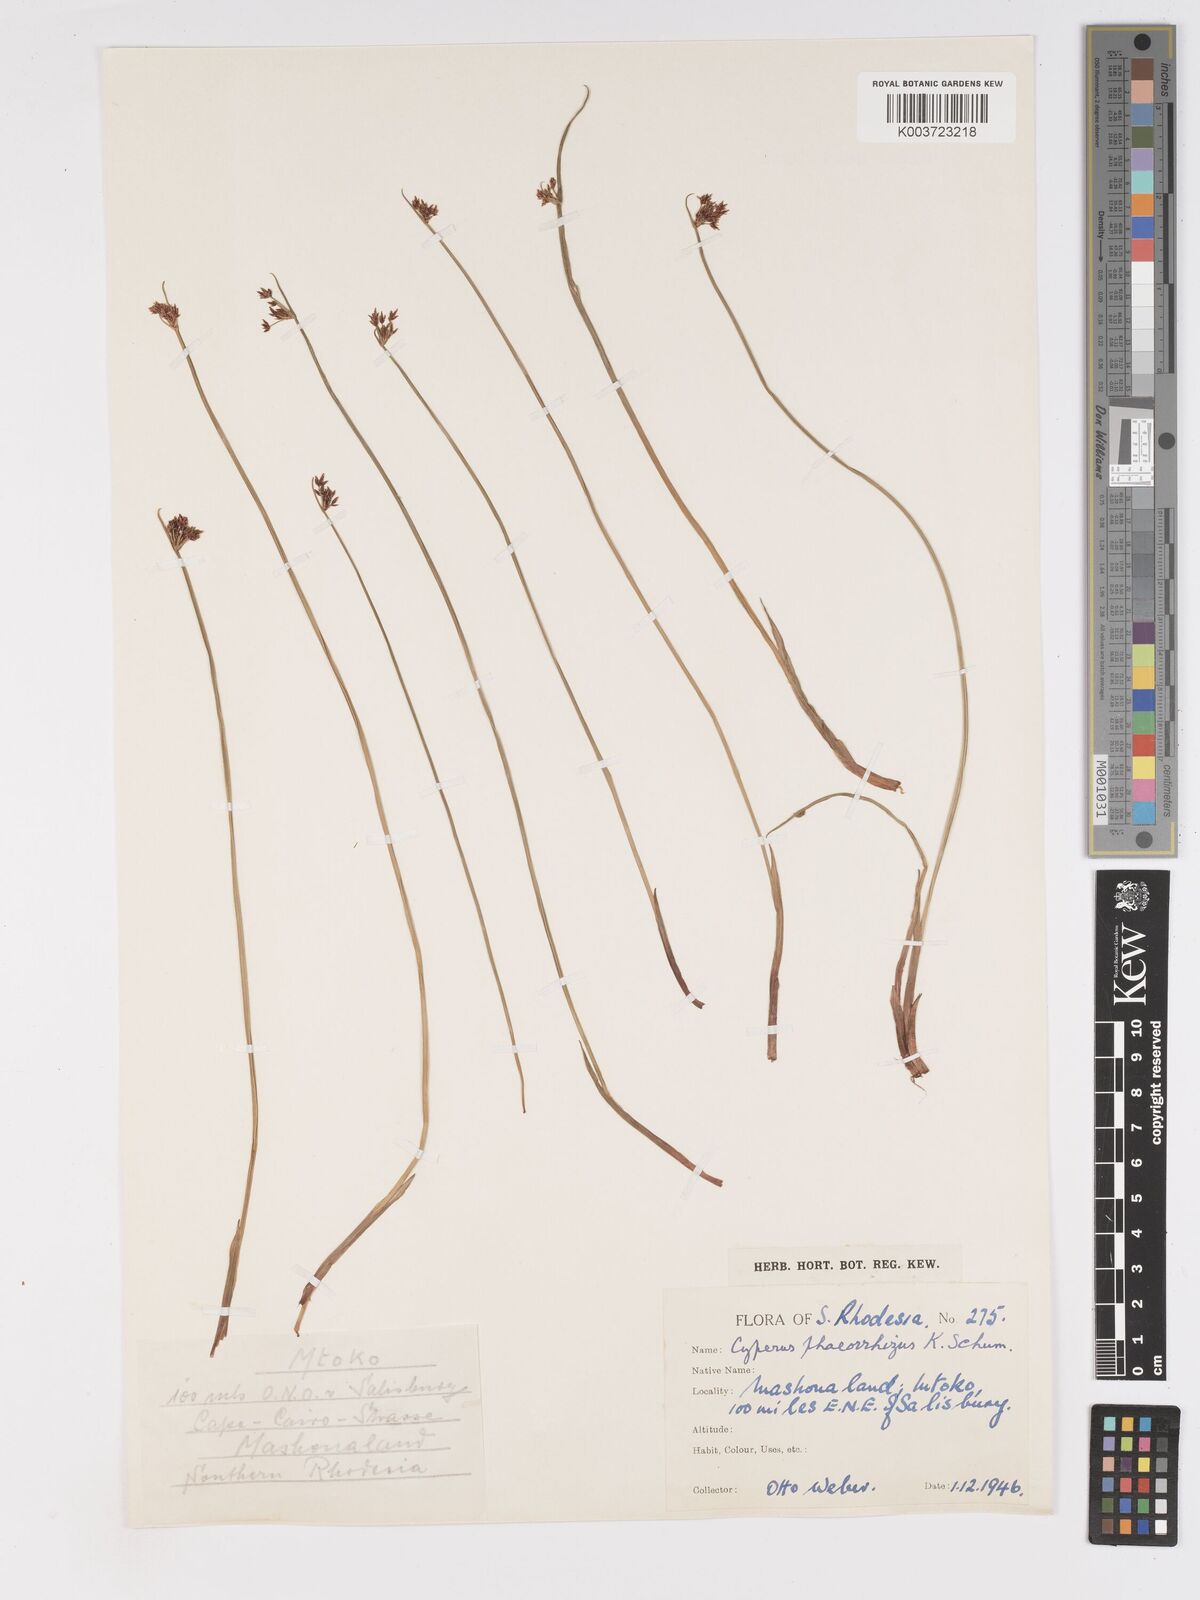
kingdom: Plantae
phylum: Tracheophyta
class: Liliopsida
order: Poales
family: Cyperaceae
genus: Cyperus
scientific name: Cyperus haspan
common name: Haspan flatsedge
